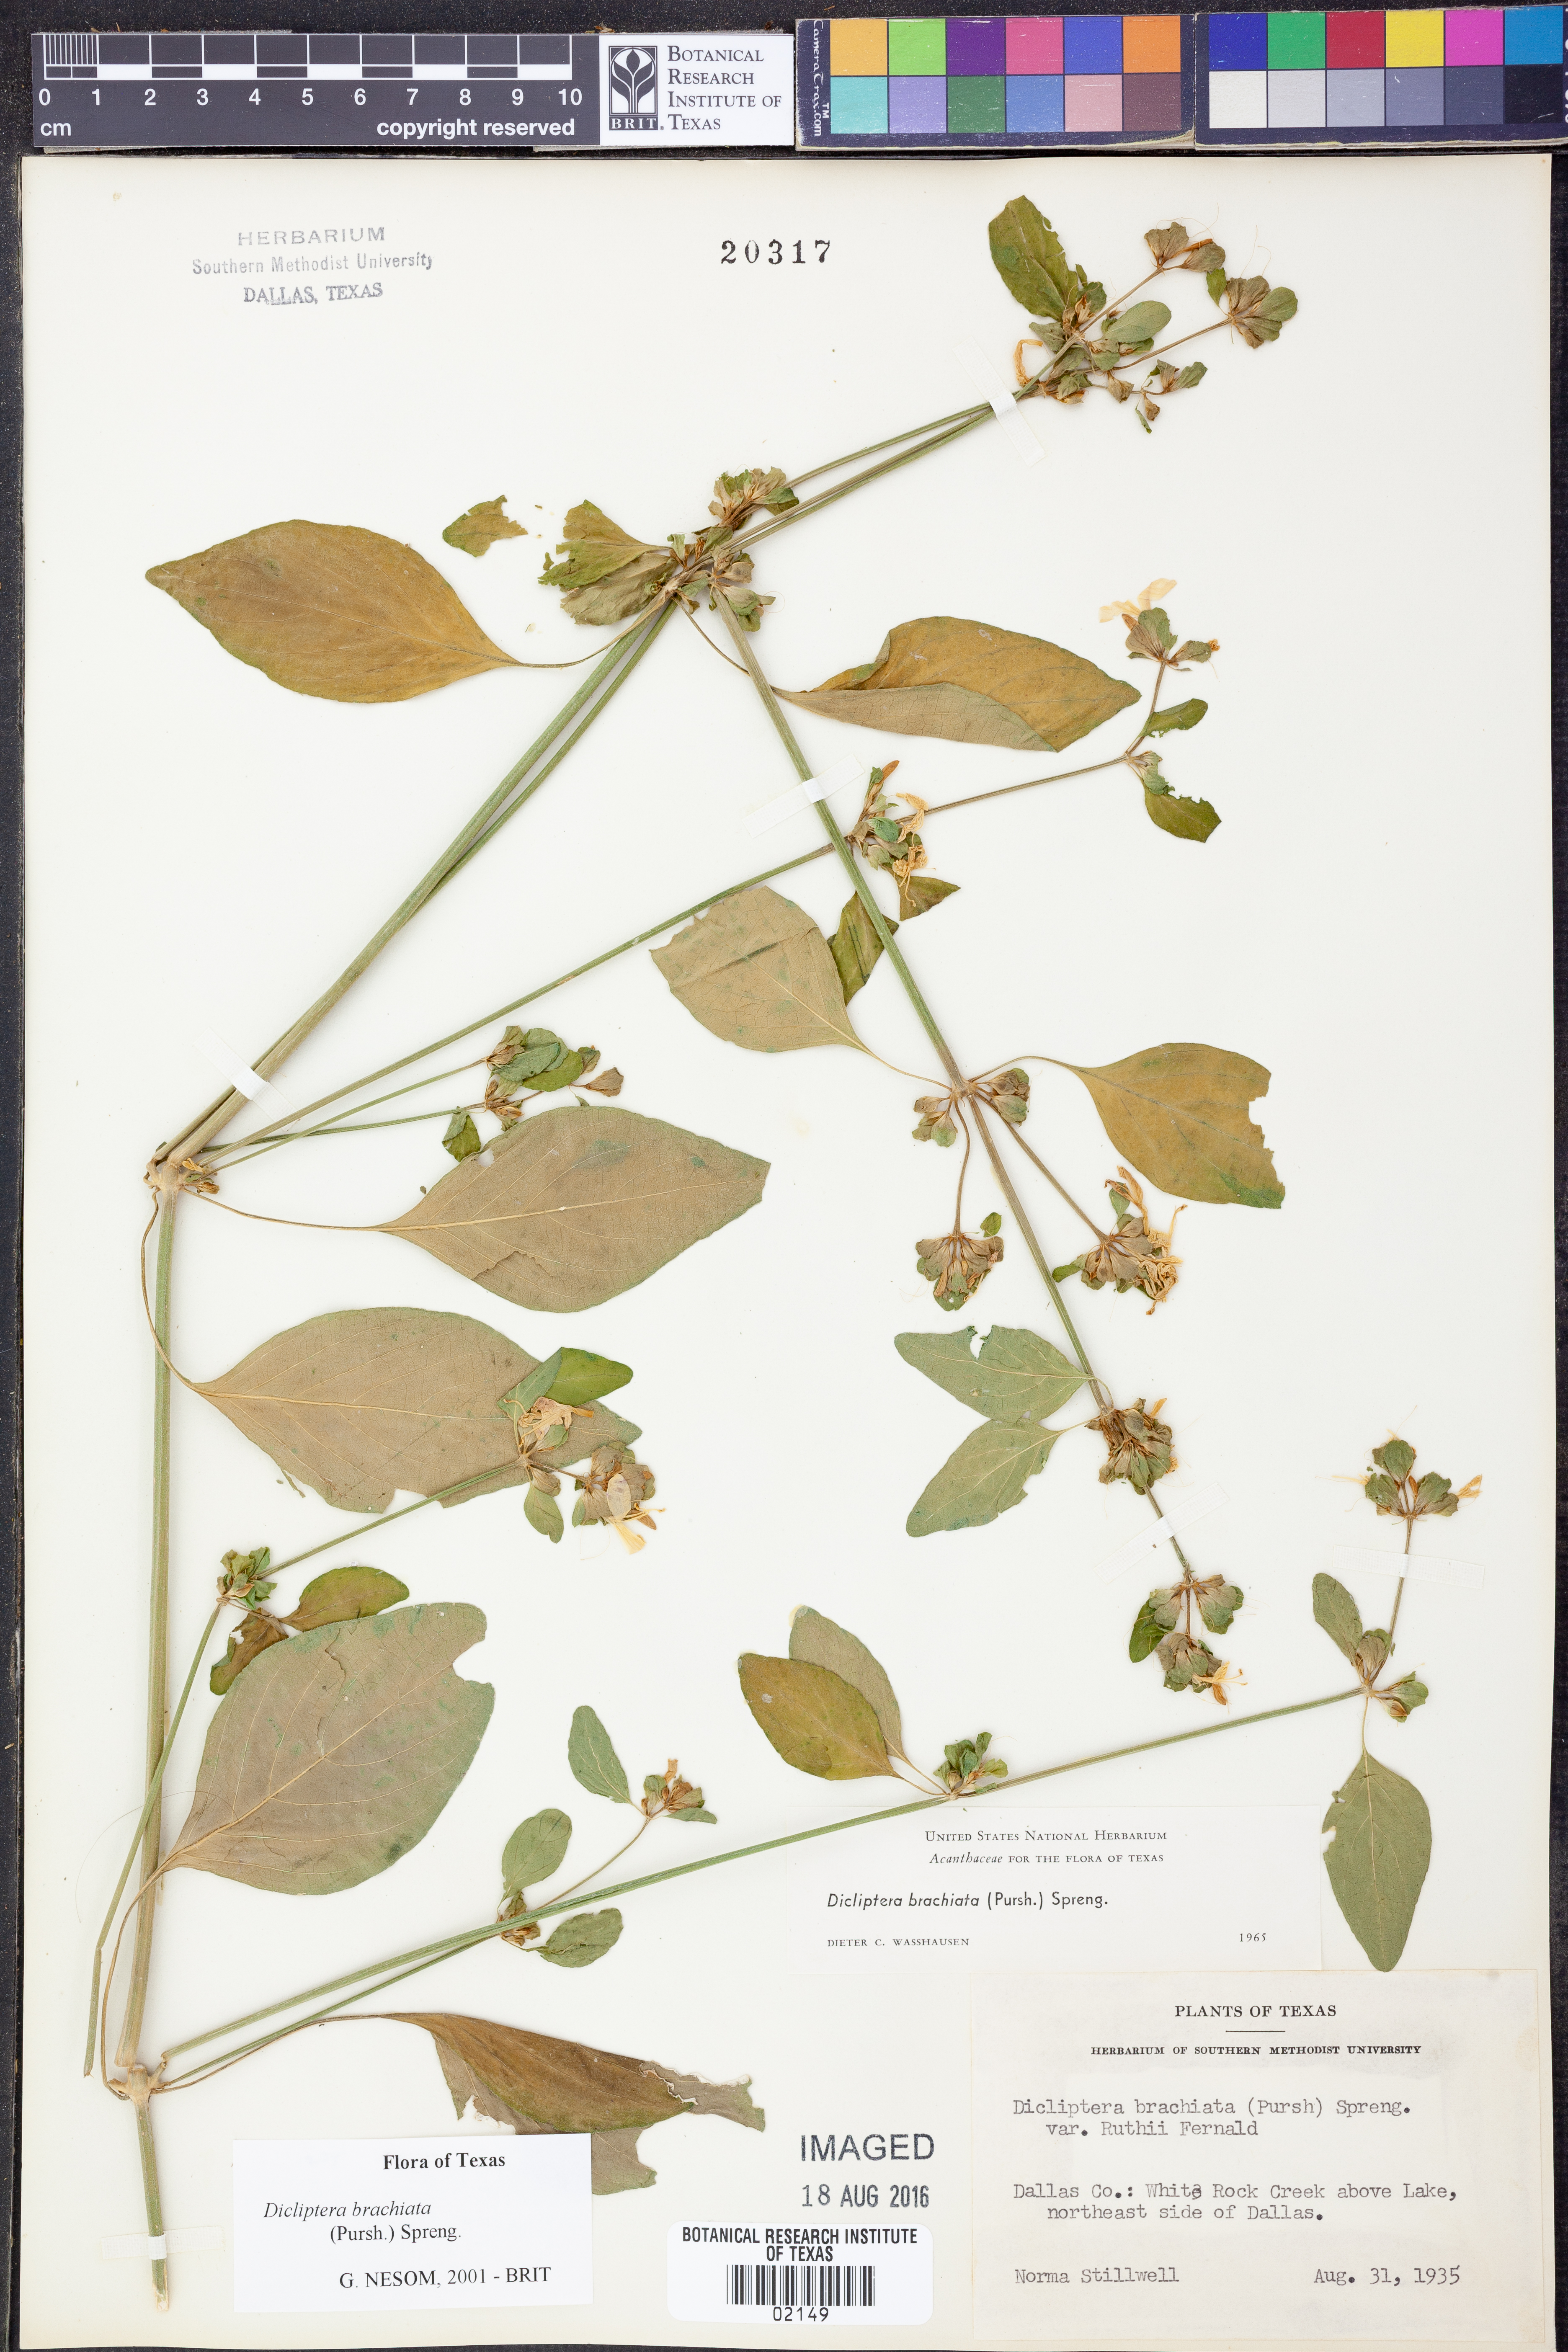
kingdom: Plantae
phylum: Tracheophyta
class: Magnoliopsida
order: Lamiales
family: Acanthaceae
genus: Dicliptera
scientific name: Dicliptera brachiata
